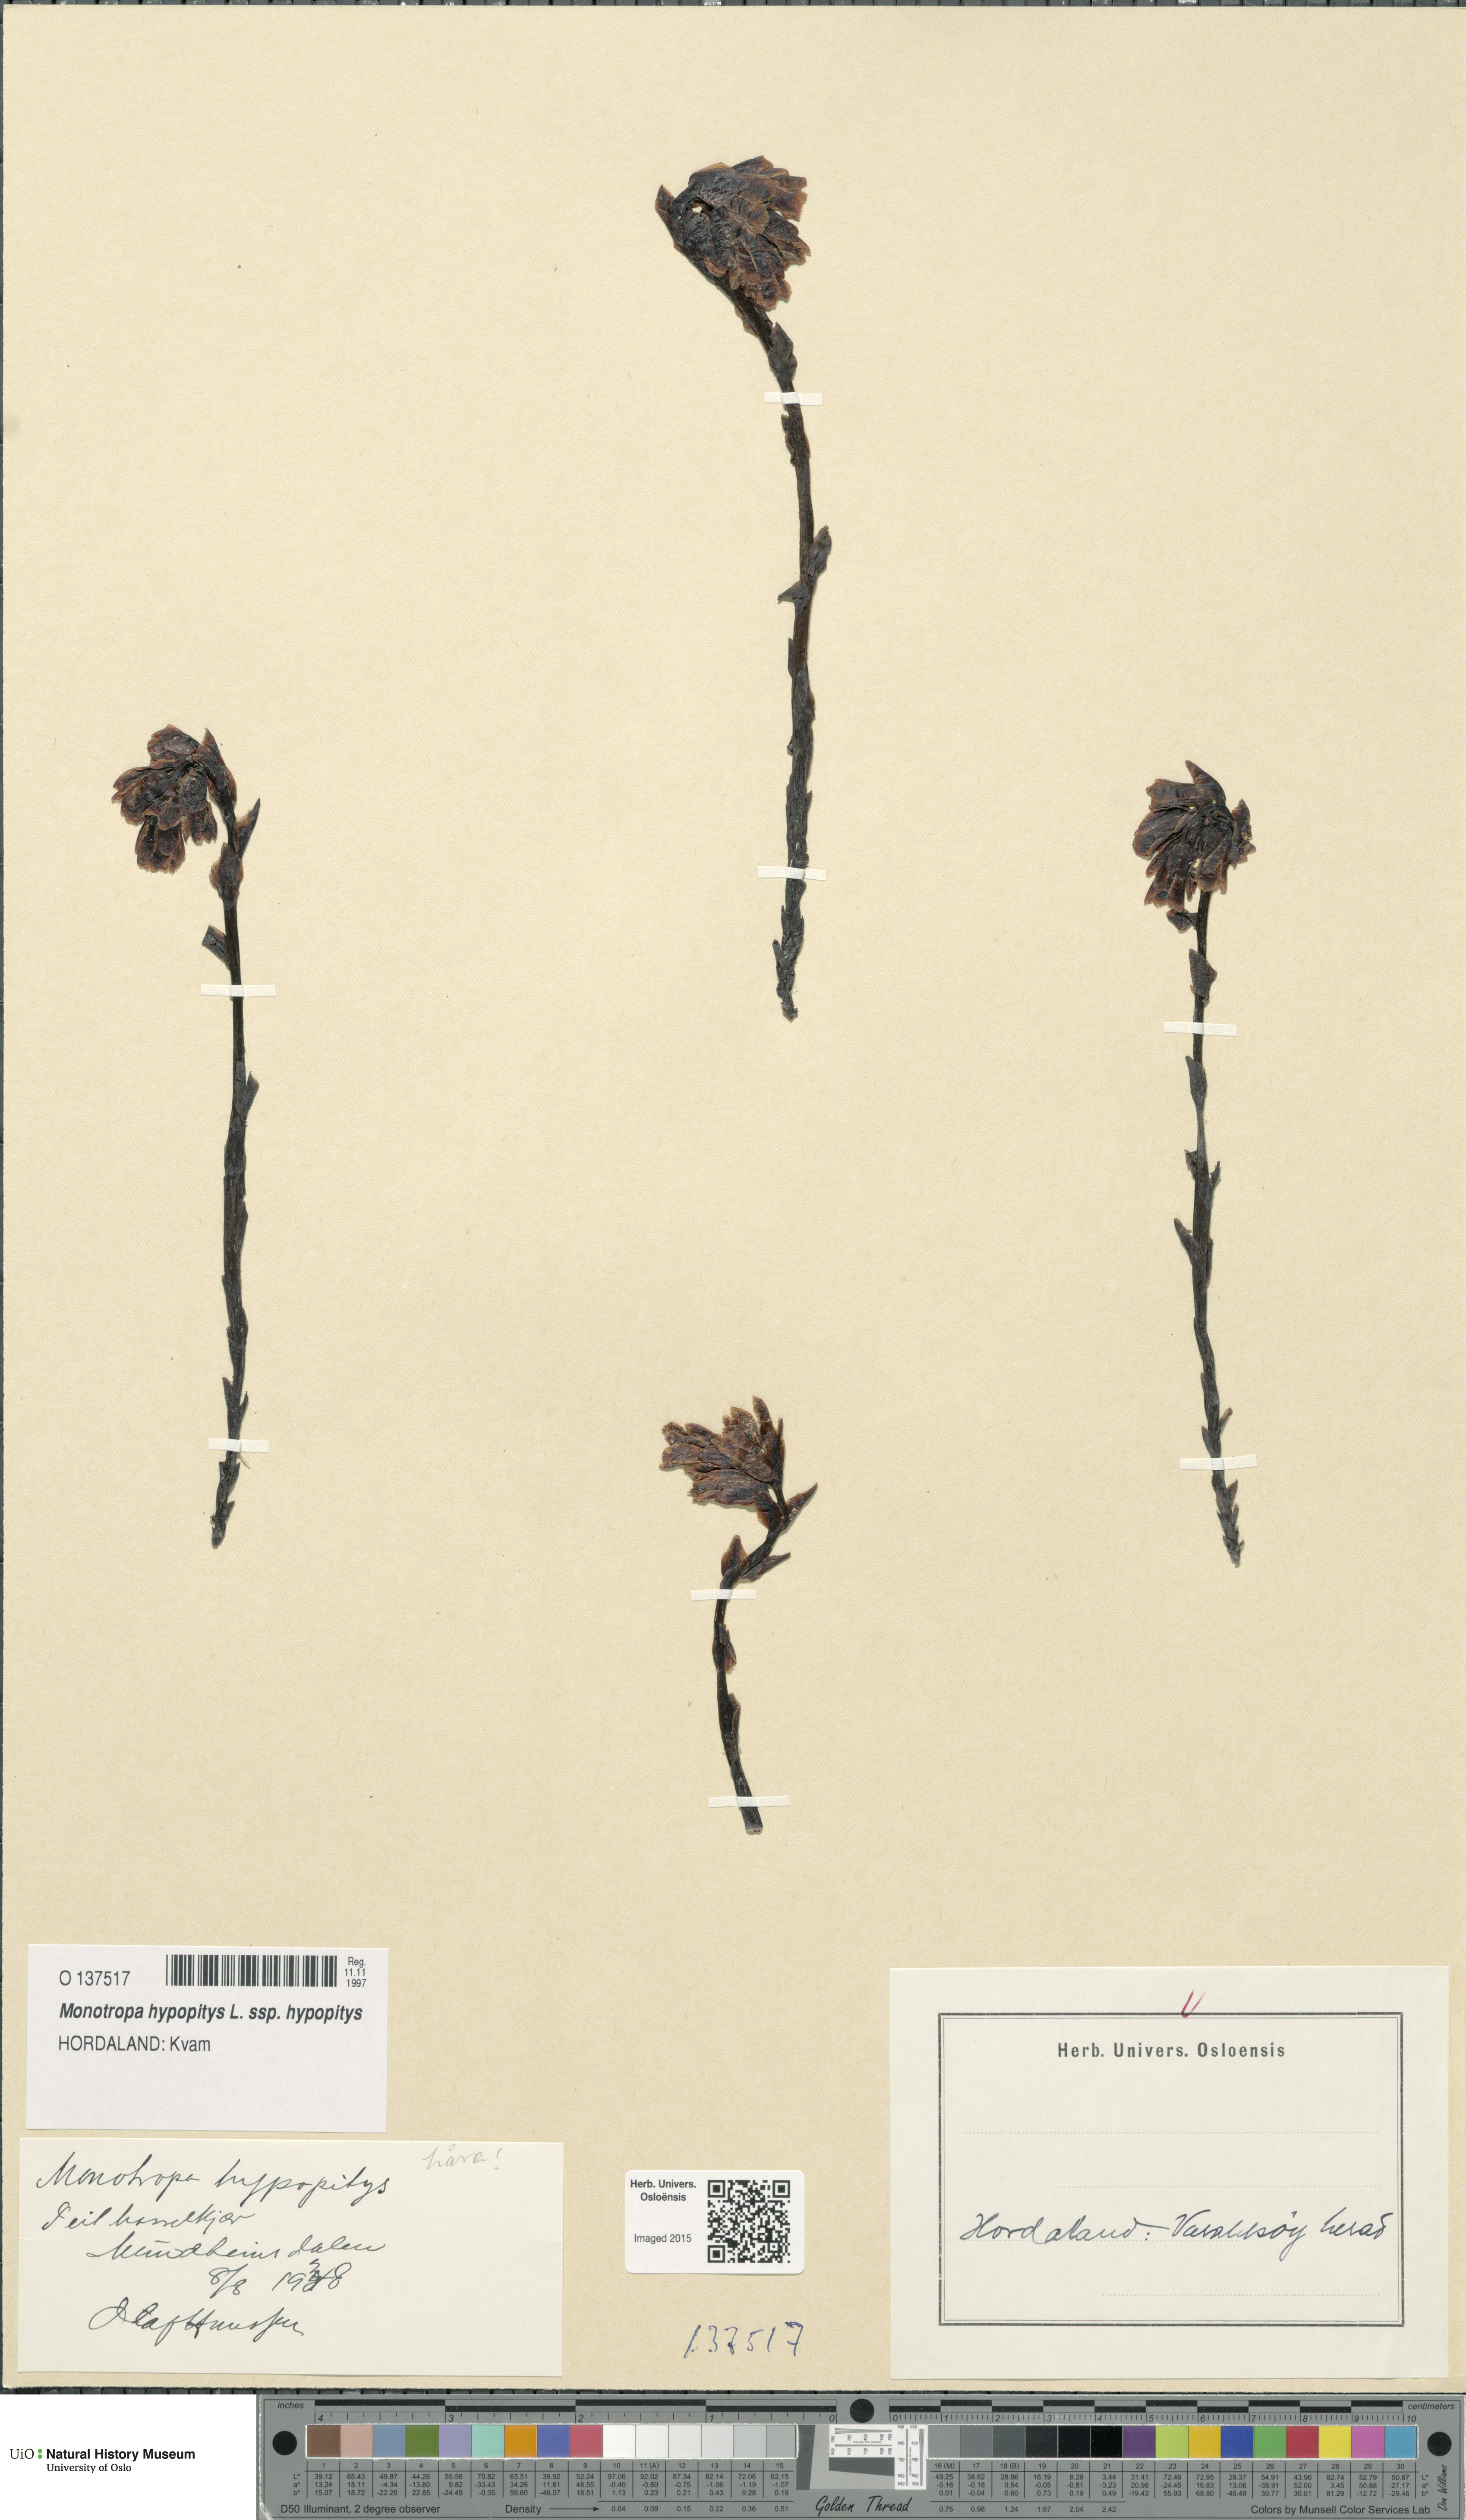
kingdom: Plantae
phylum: Tracheophyta
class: Magnoliopsida
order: Ericales
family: Ericaceae
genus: Hypopitys
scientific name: Hypopitys monotropa
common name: Yellow bird's-nest
